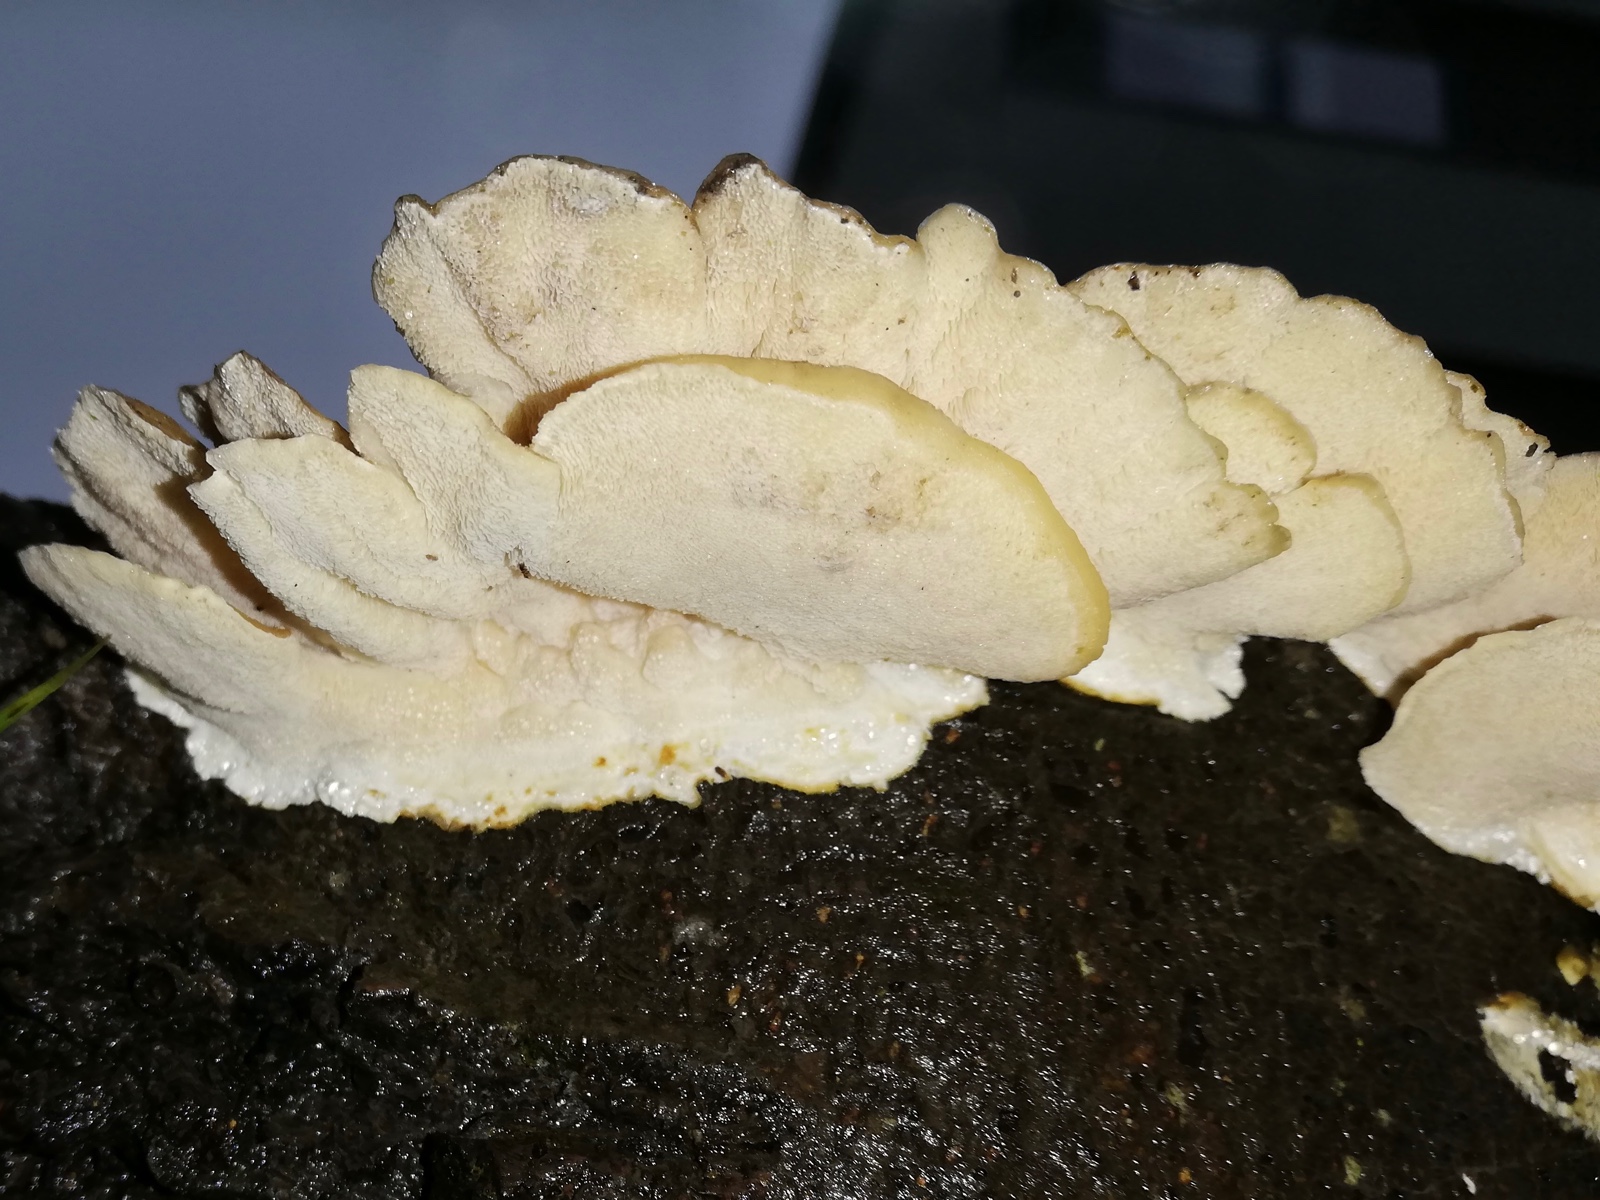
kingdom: Fungi
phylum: Basidiomycota
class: Agaricomycetes
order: Polyporales
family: Polyporaceae
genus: Trametes
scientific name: Trametes versicolor
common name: broget læderporesvamp
